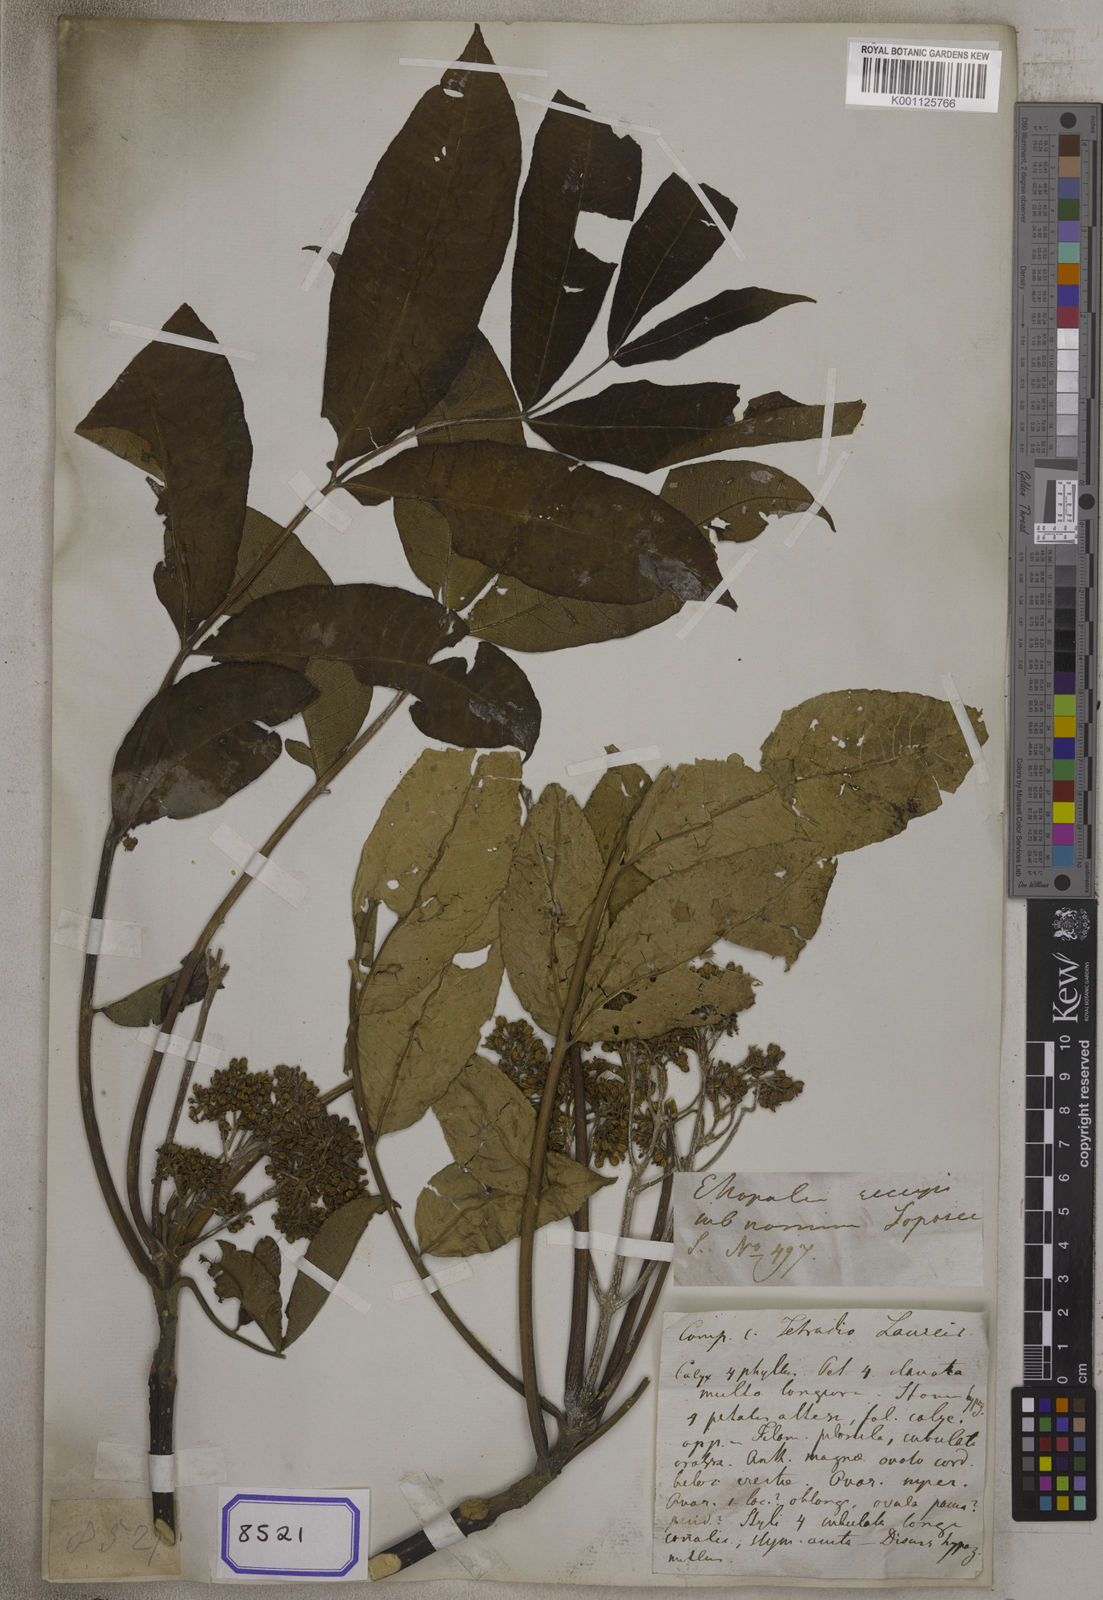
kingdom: Plantae
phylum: Tracheophyta
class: Magnoliopsida
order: Sapindales
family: Rutaceae
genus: Tetradium
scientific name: Tetradium fraxinifolium
